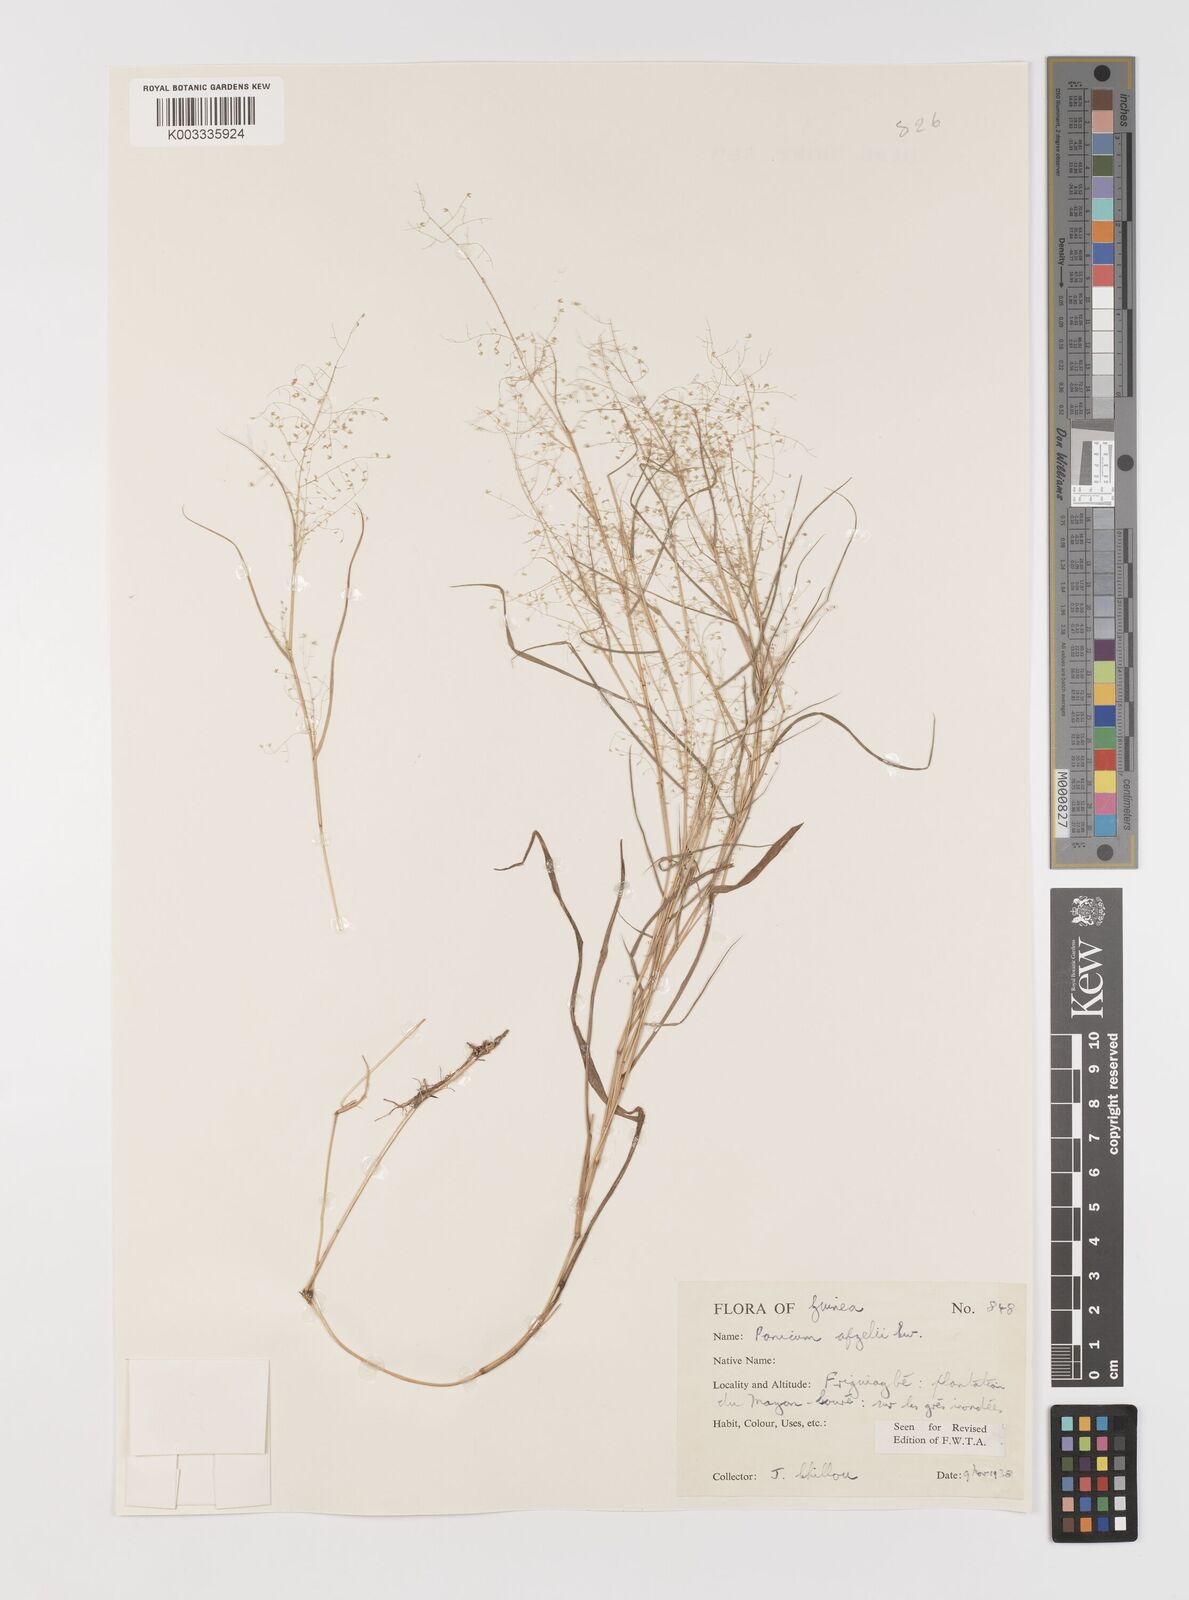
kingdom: Plantae
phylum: Tracheophyta
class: Liliopsida
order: Poales
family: Poaceae
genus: Panicum
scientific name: Panicum afzelii
